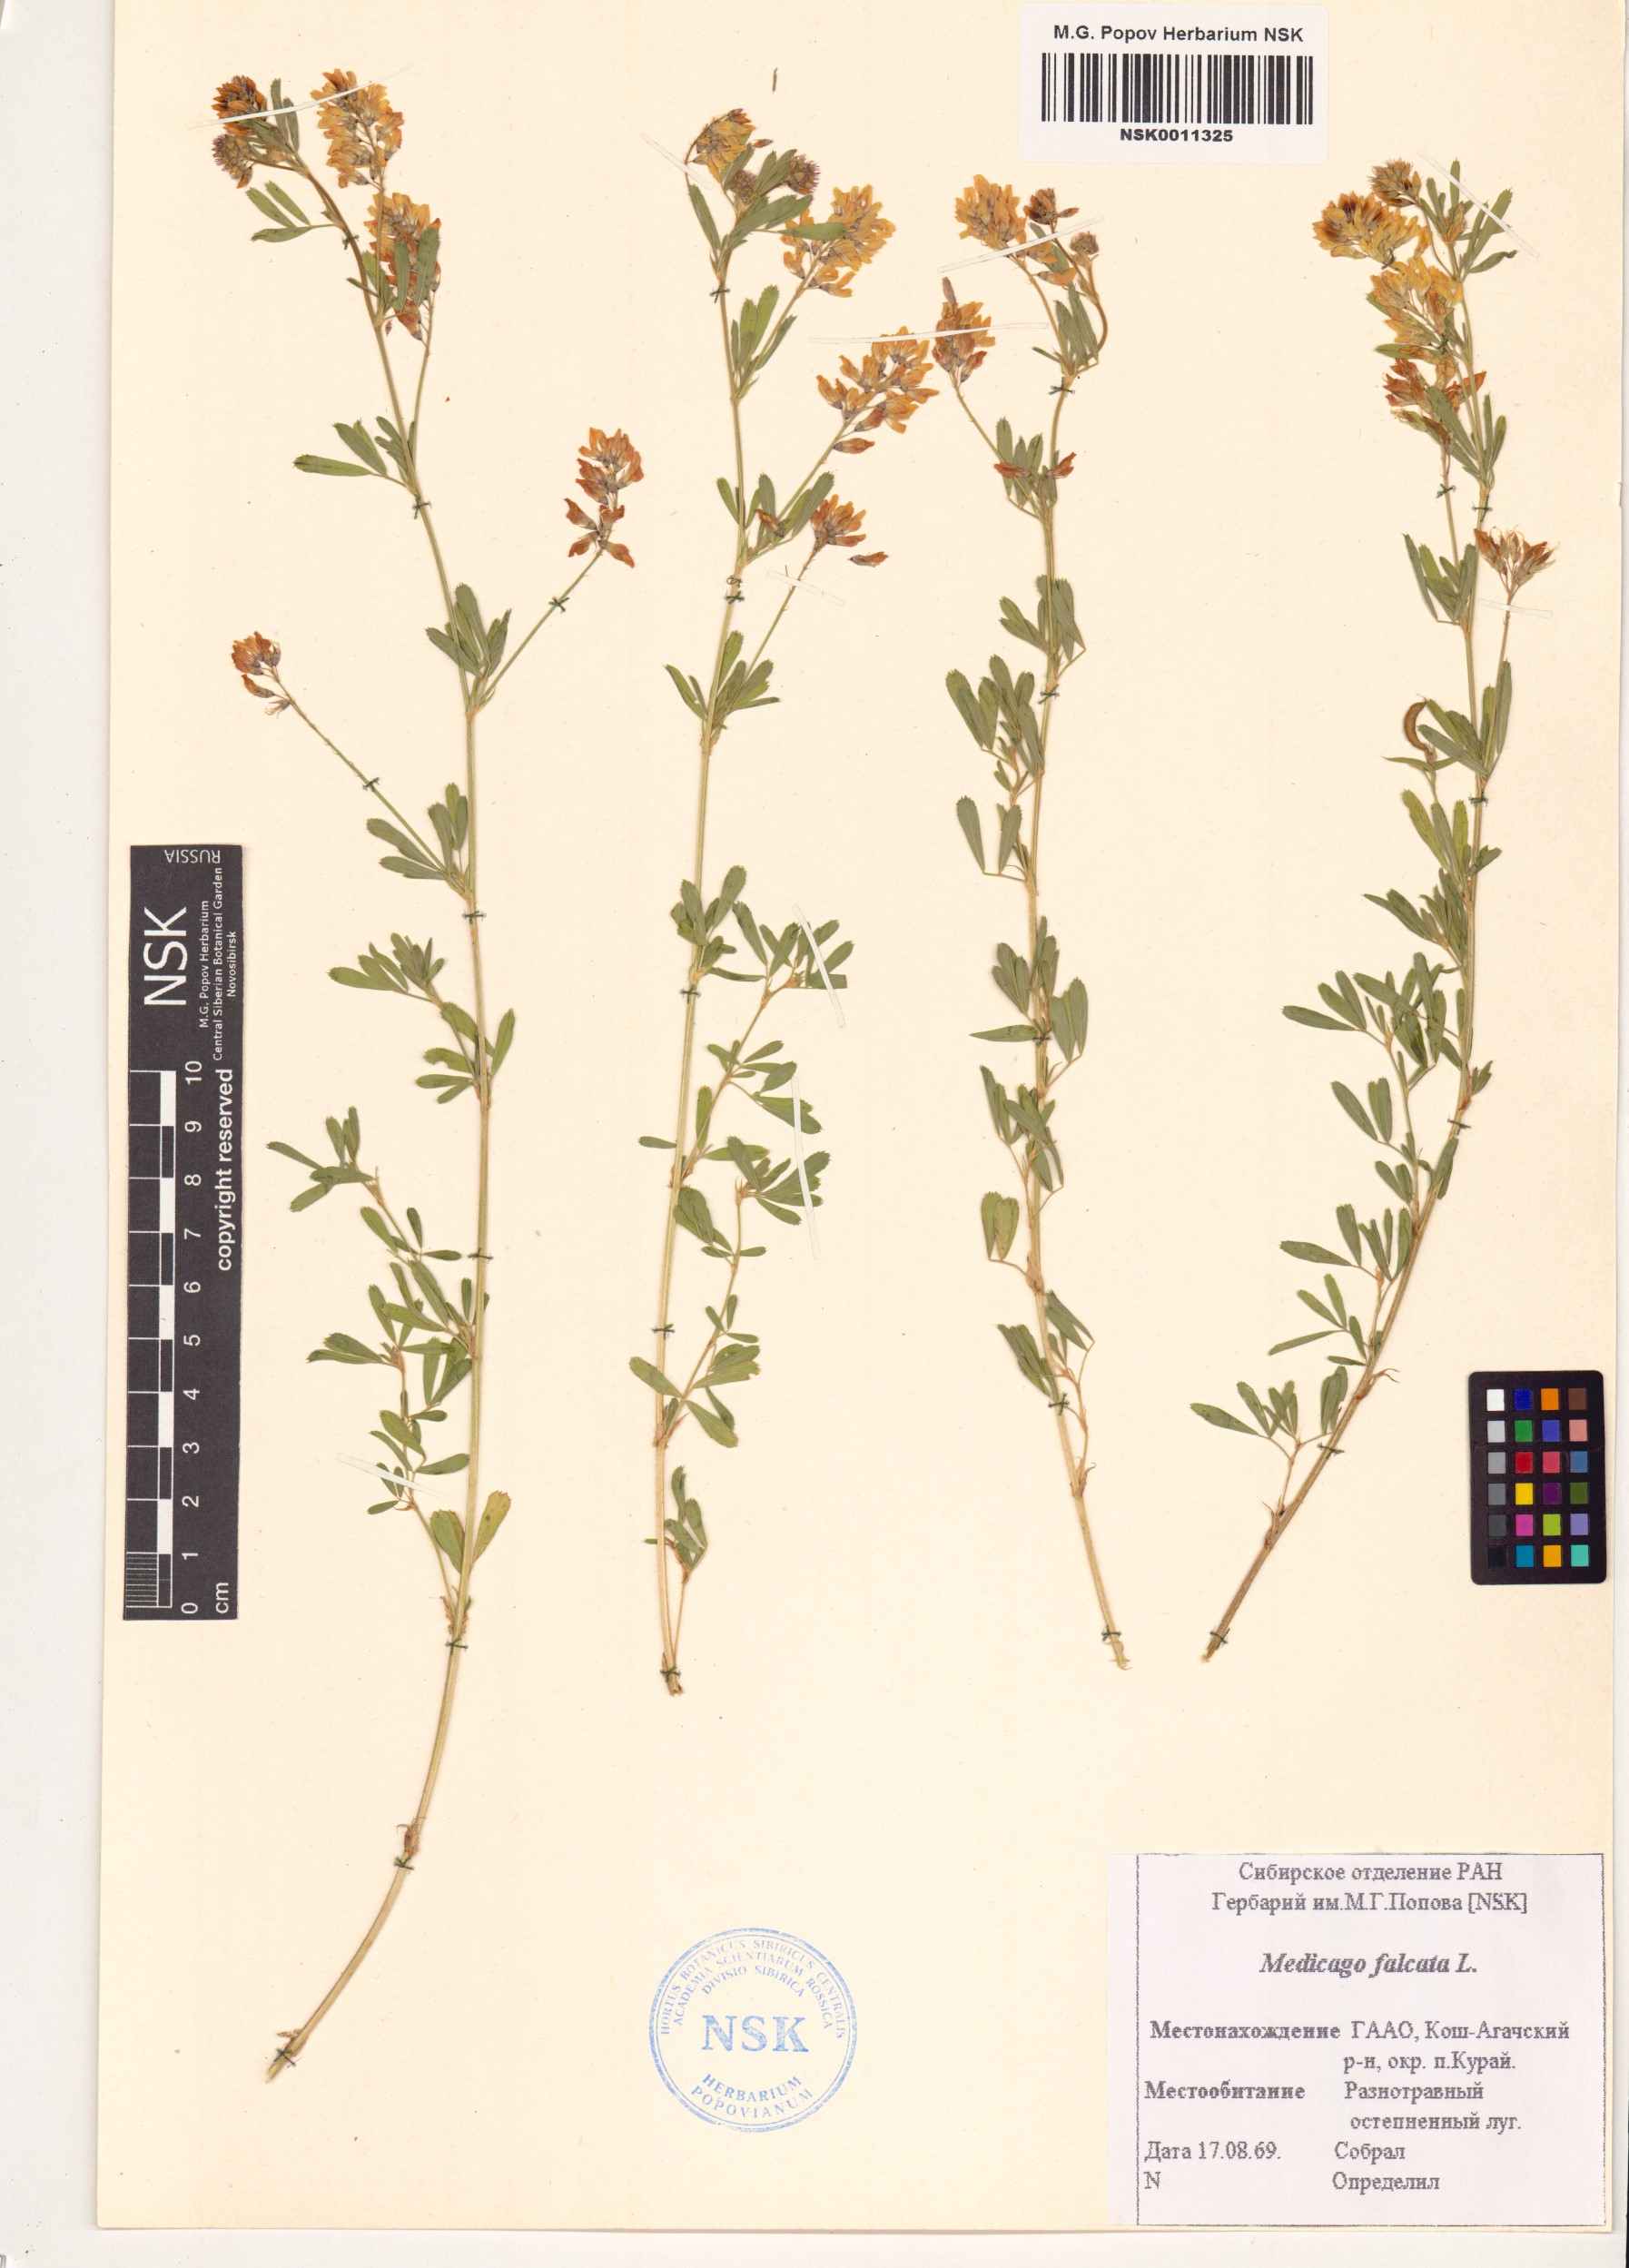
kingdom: Plantae
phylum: Tracheophyta
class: Magnoliopsida
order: Fabales
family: Fabaceae
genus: Medicago
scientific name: Medicago falcata
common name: Sickle medick
